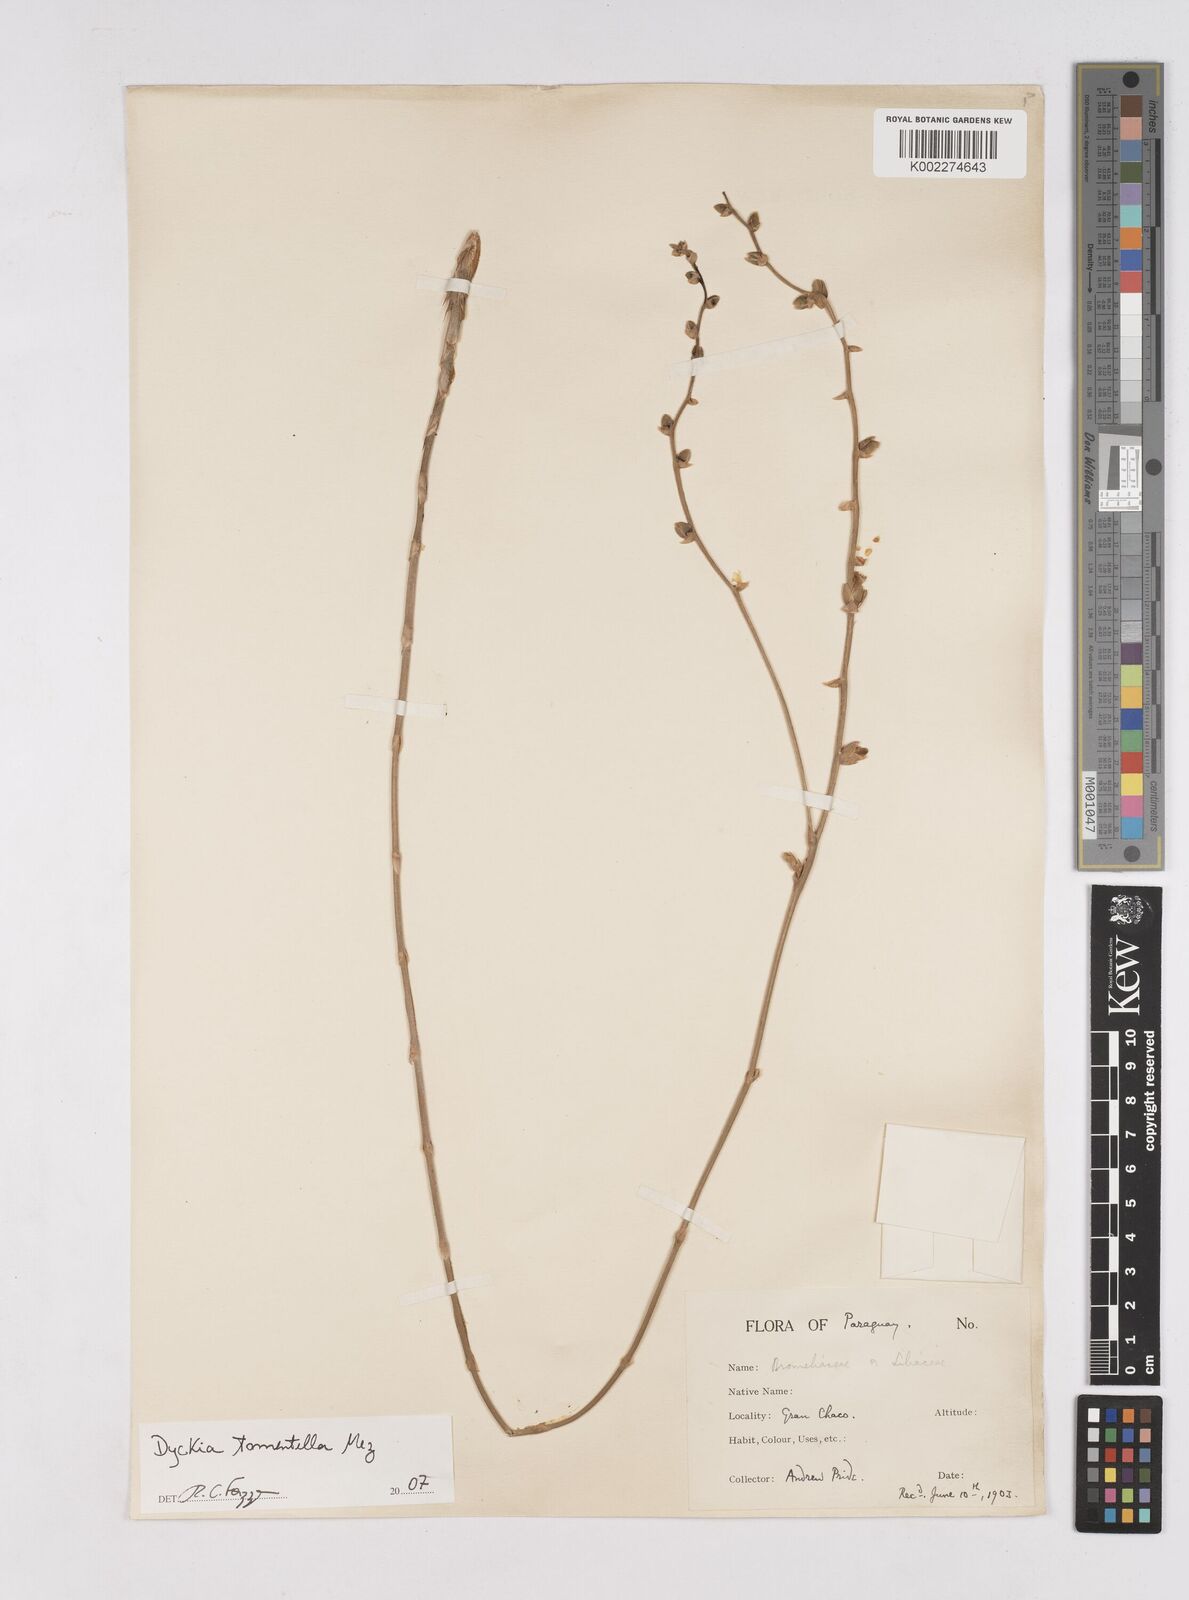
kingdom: Plantae
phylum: Tracheophyta
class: Liliopsida
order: Poales
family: Bromeliaceae
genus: Dyckia
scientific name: Dyckia tomentella
